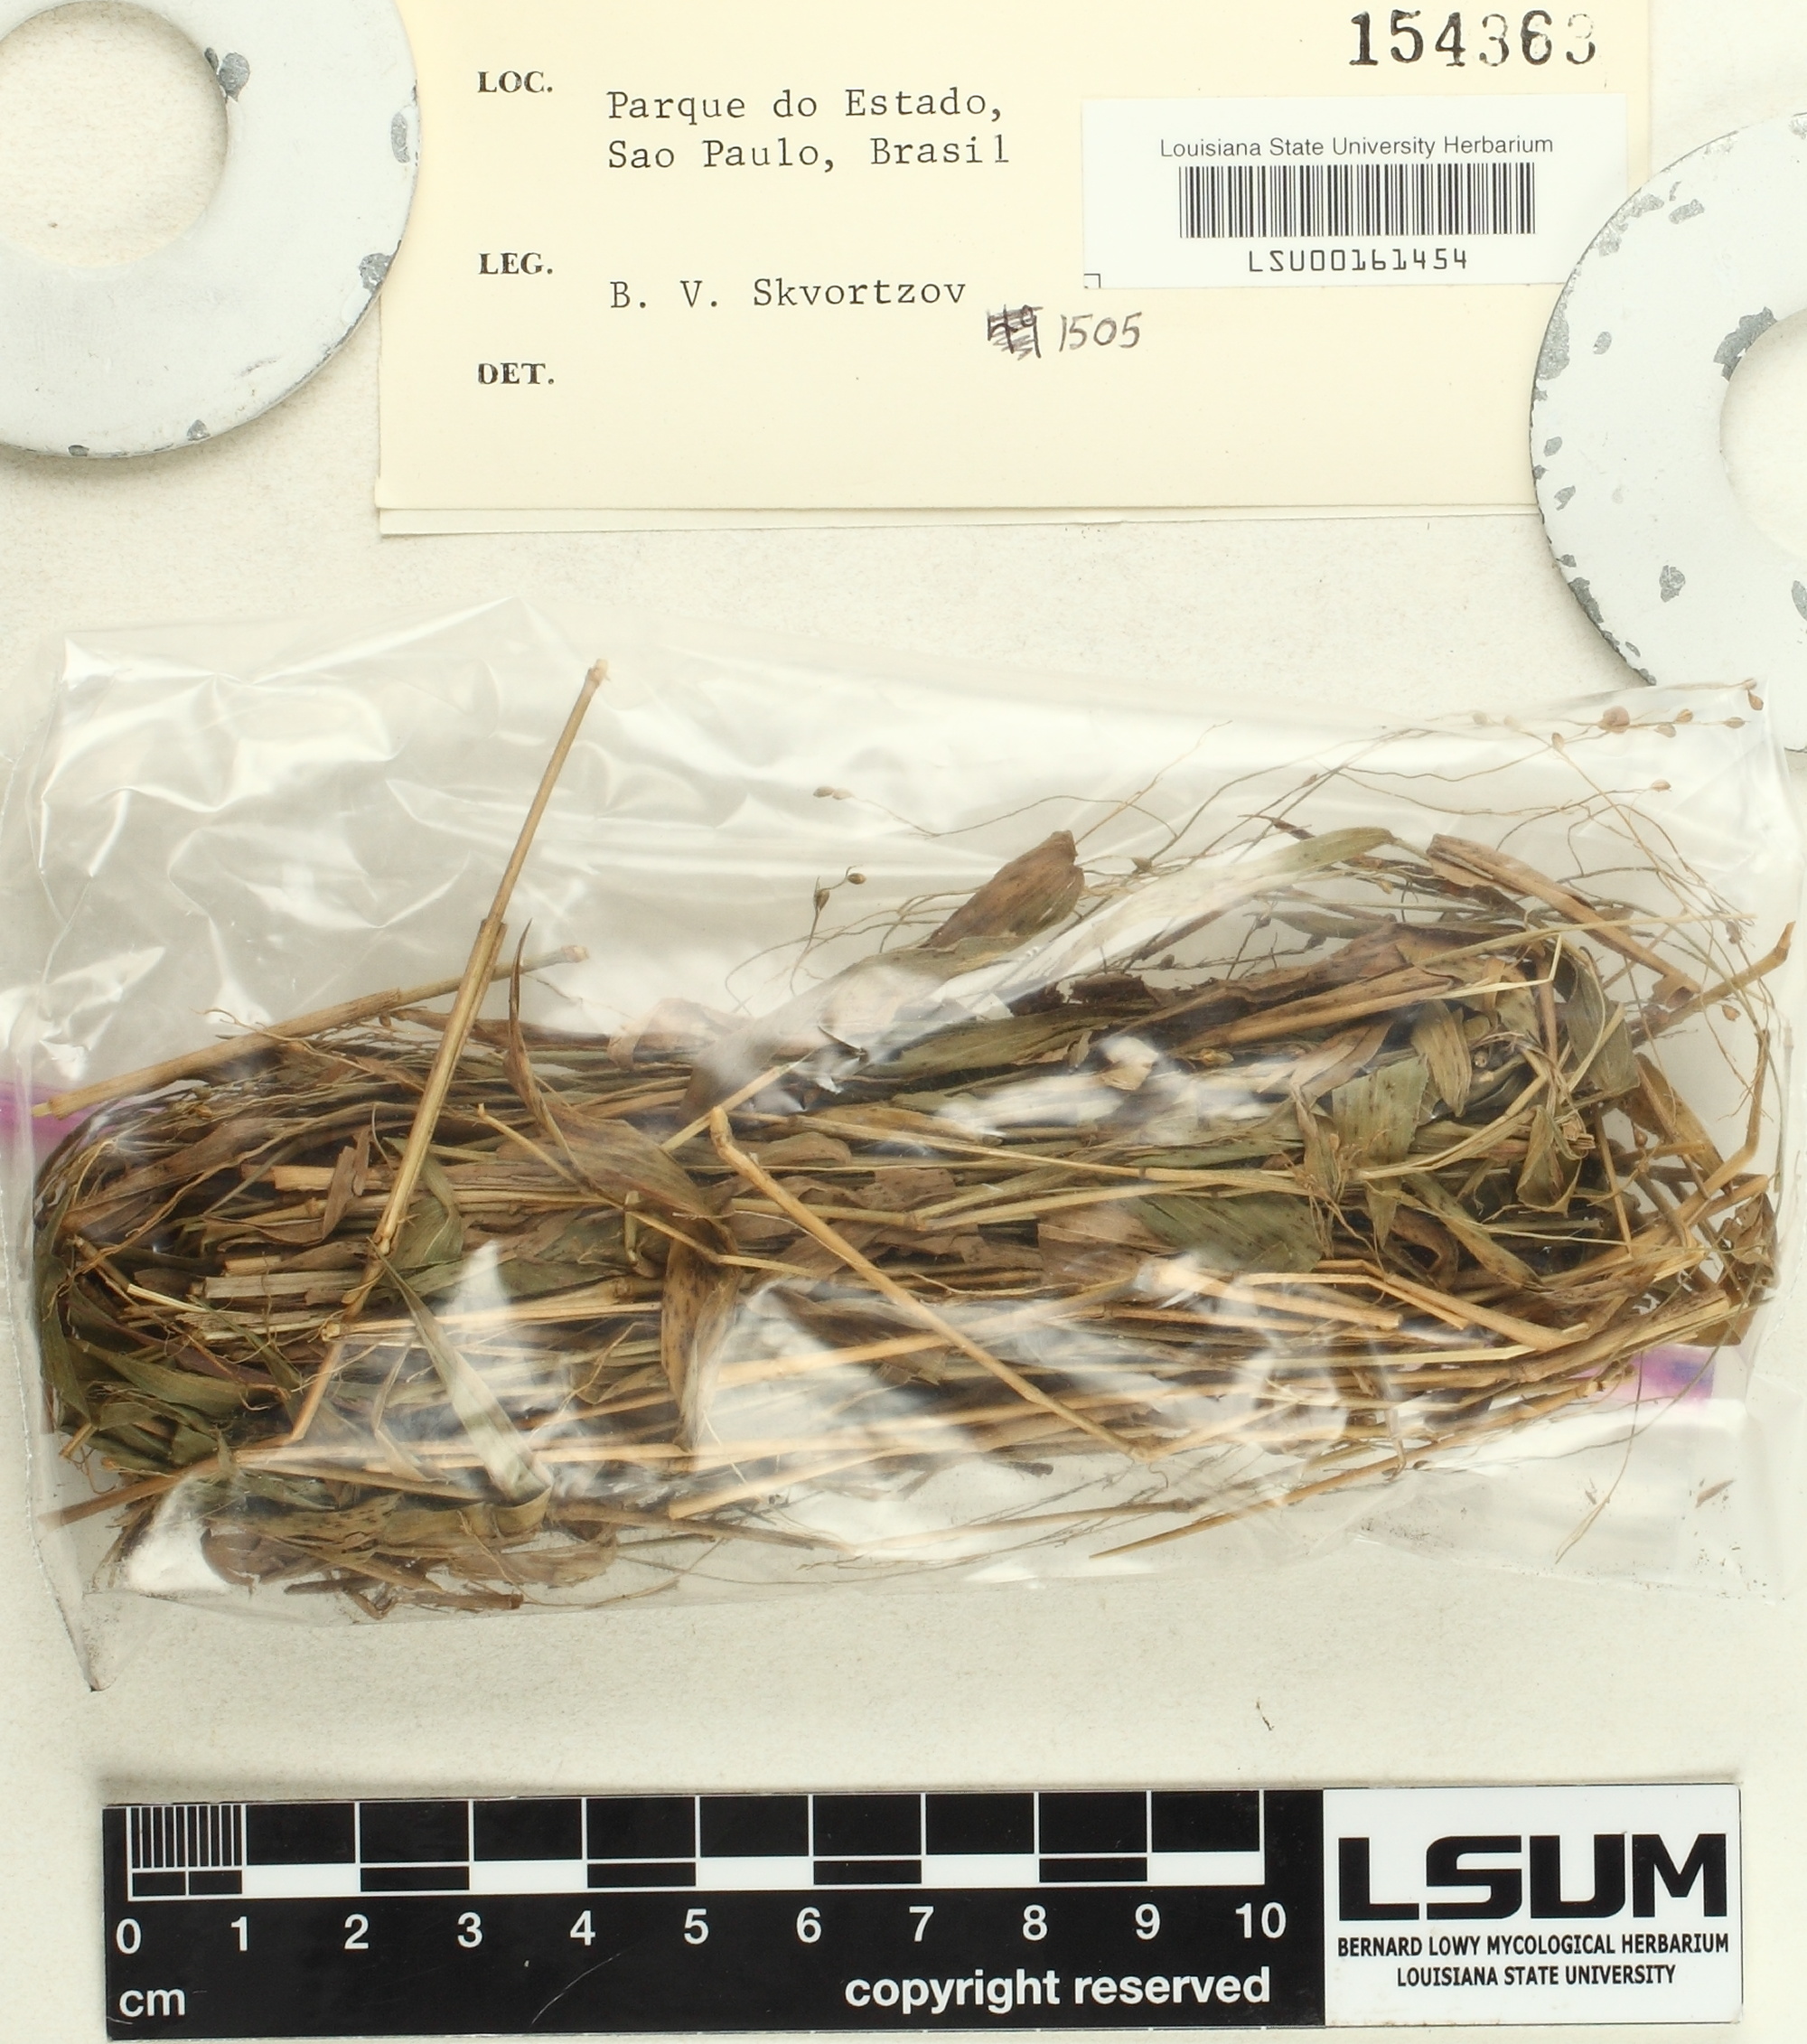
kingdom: Fungi
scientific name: Fungi
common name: Fungi
